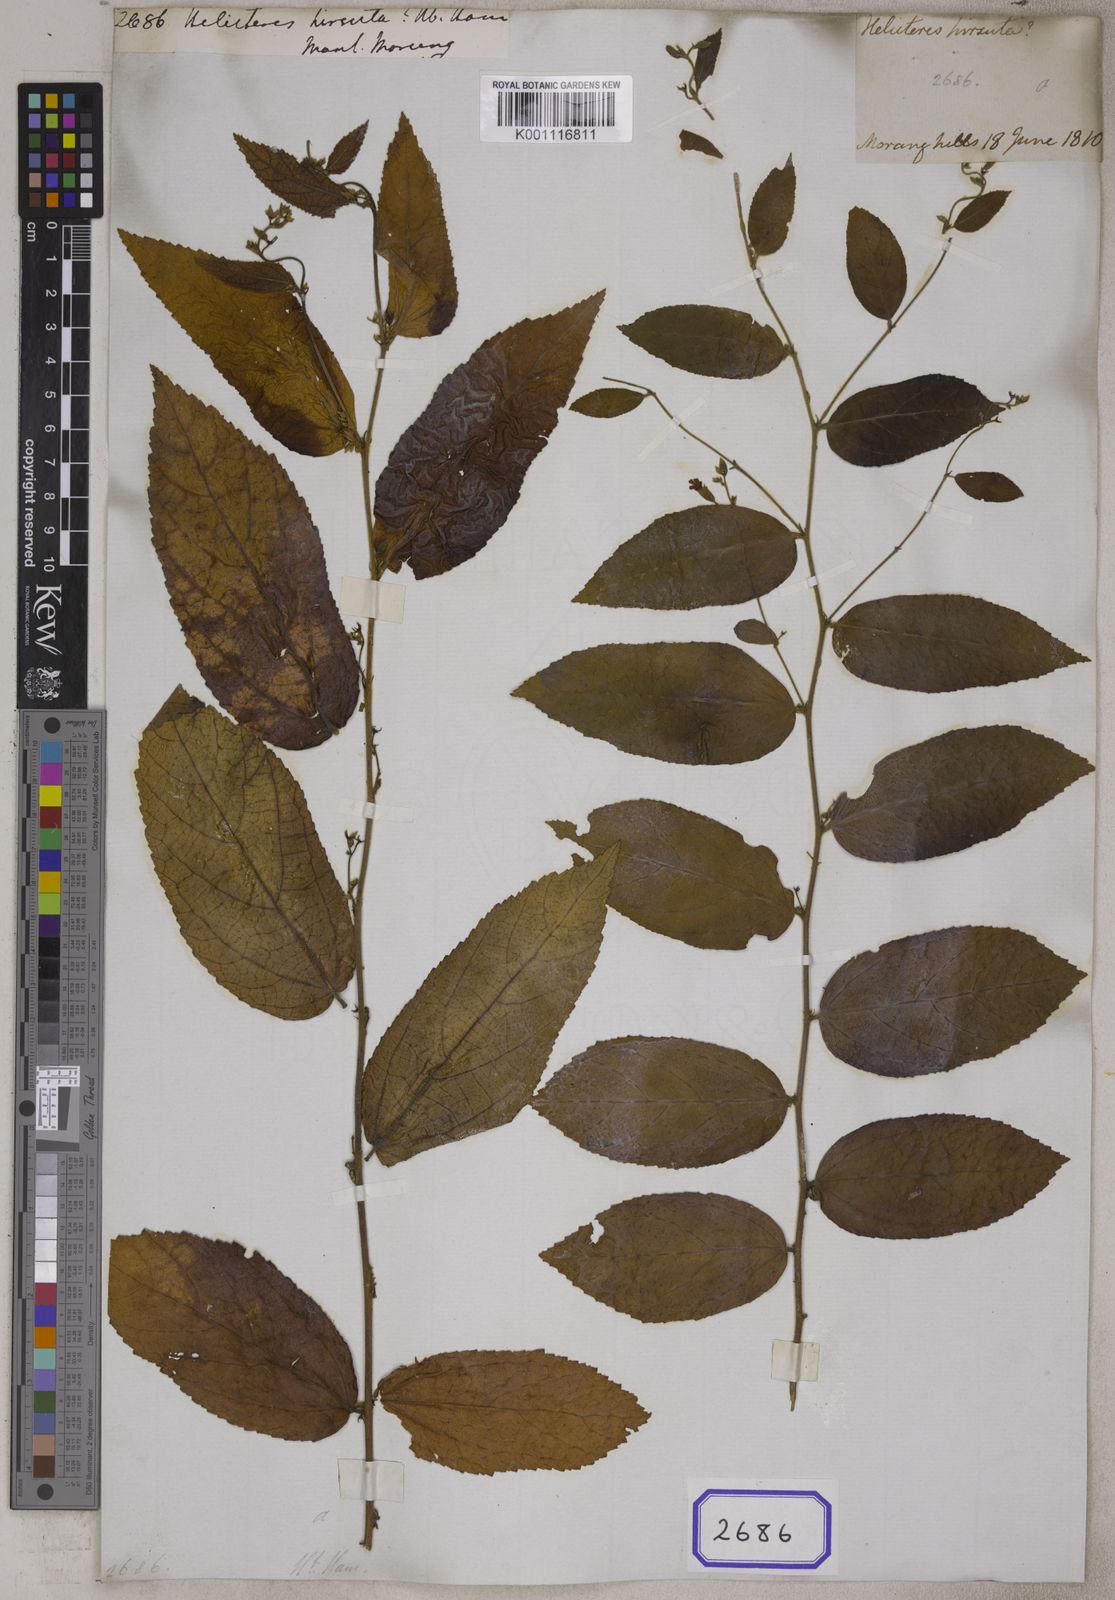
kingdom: Plantae
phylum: Tracheophyta
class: Magnoliopsida
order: Malvales
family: Malvaceae
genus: Helicteres
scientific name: Helicteres
